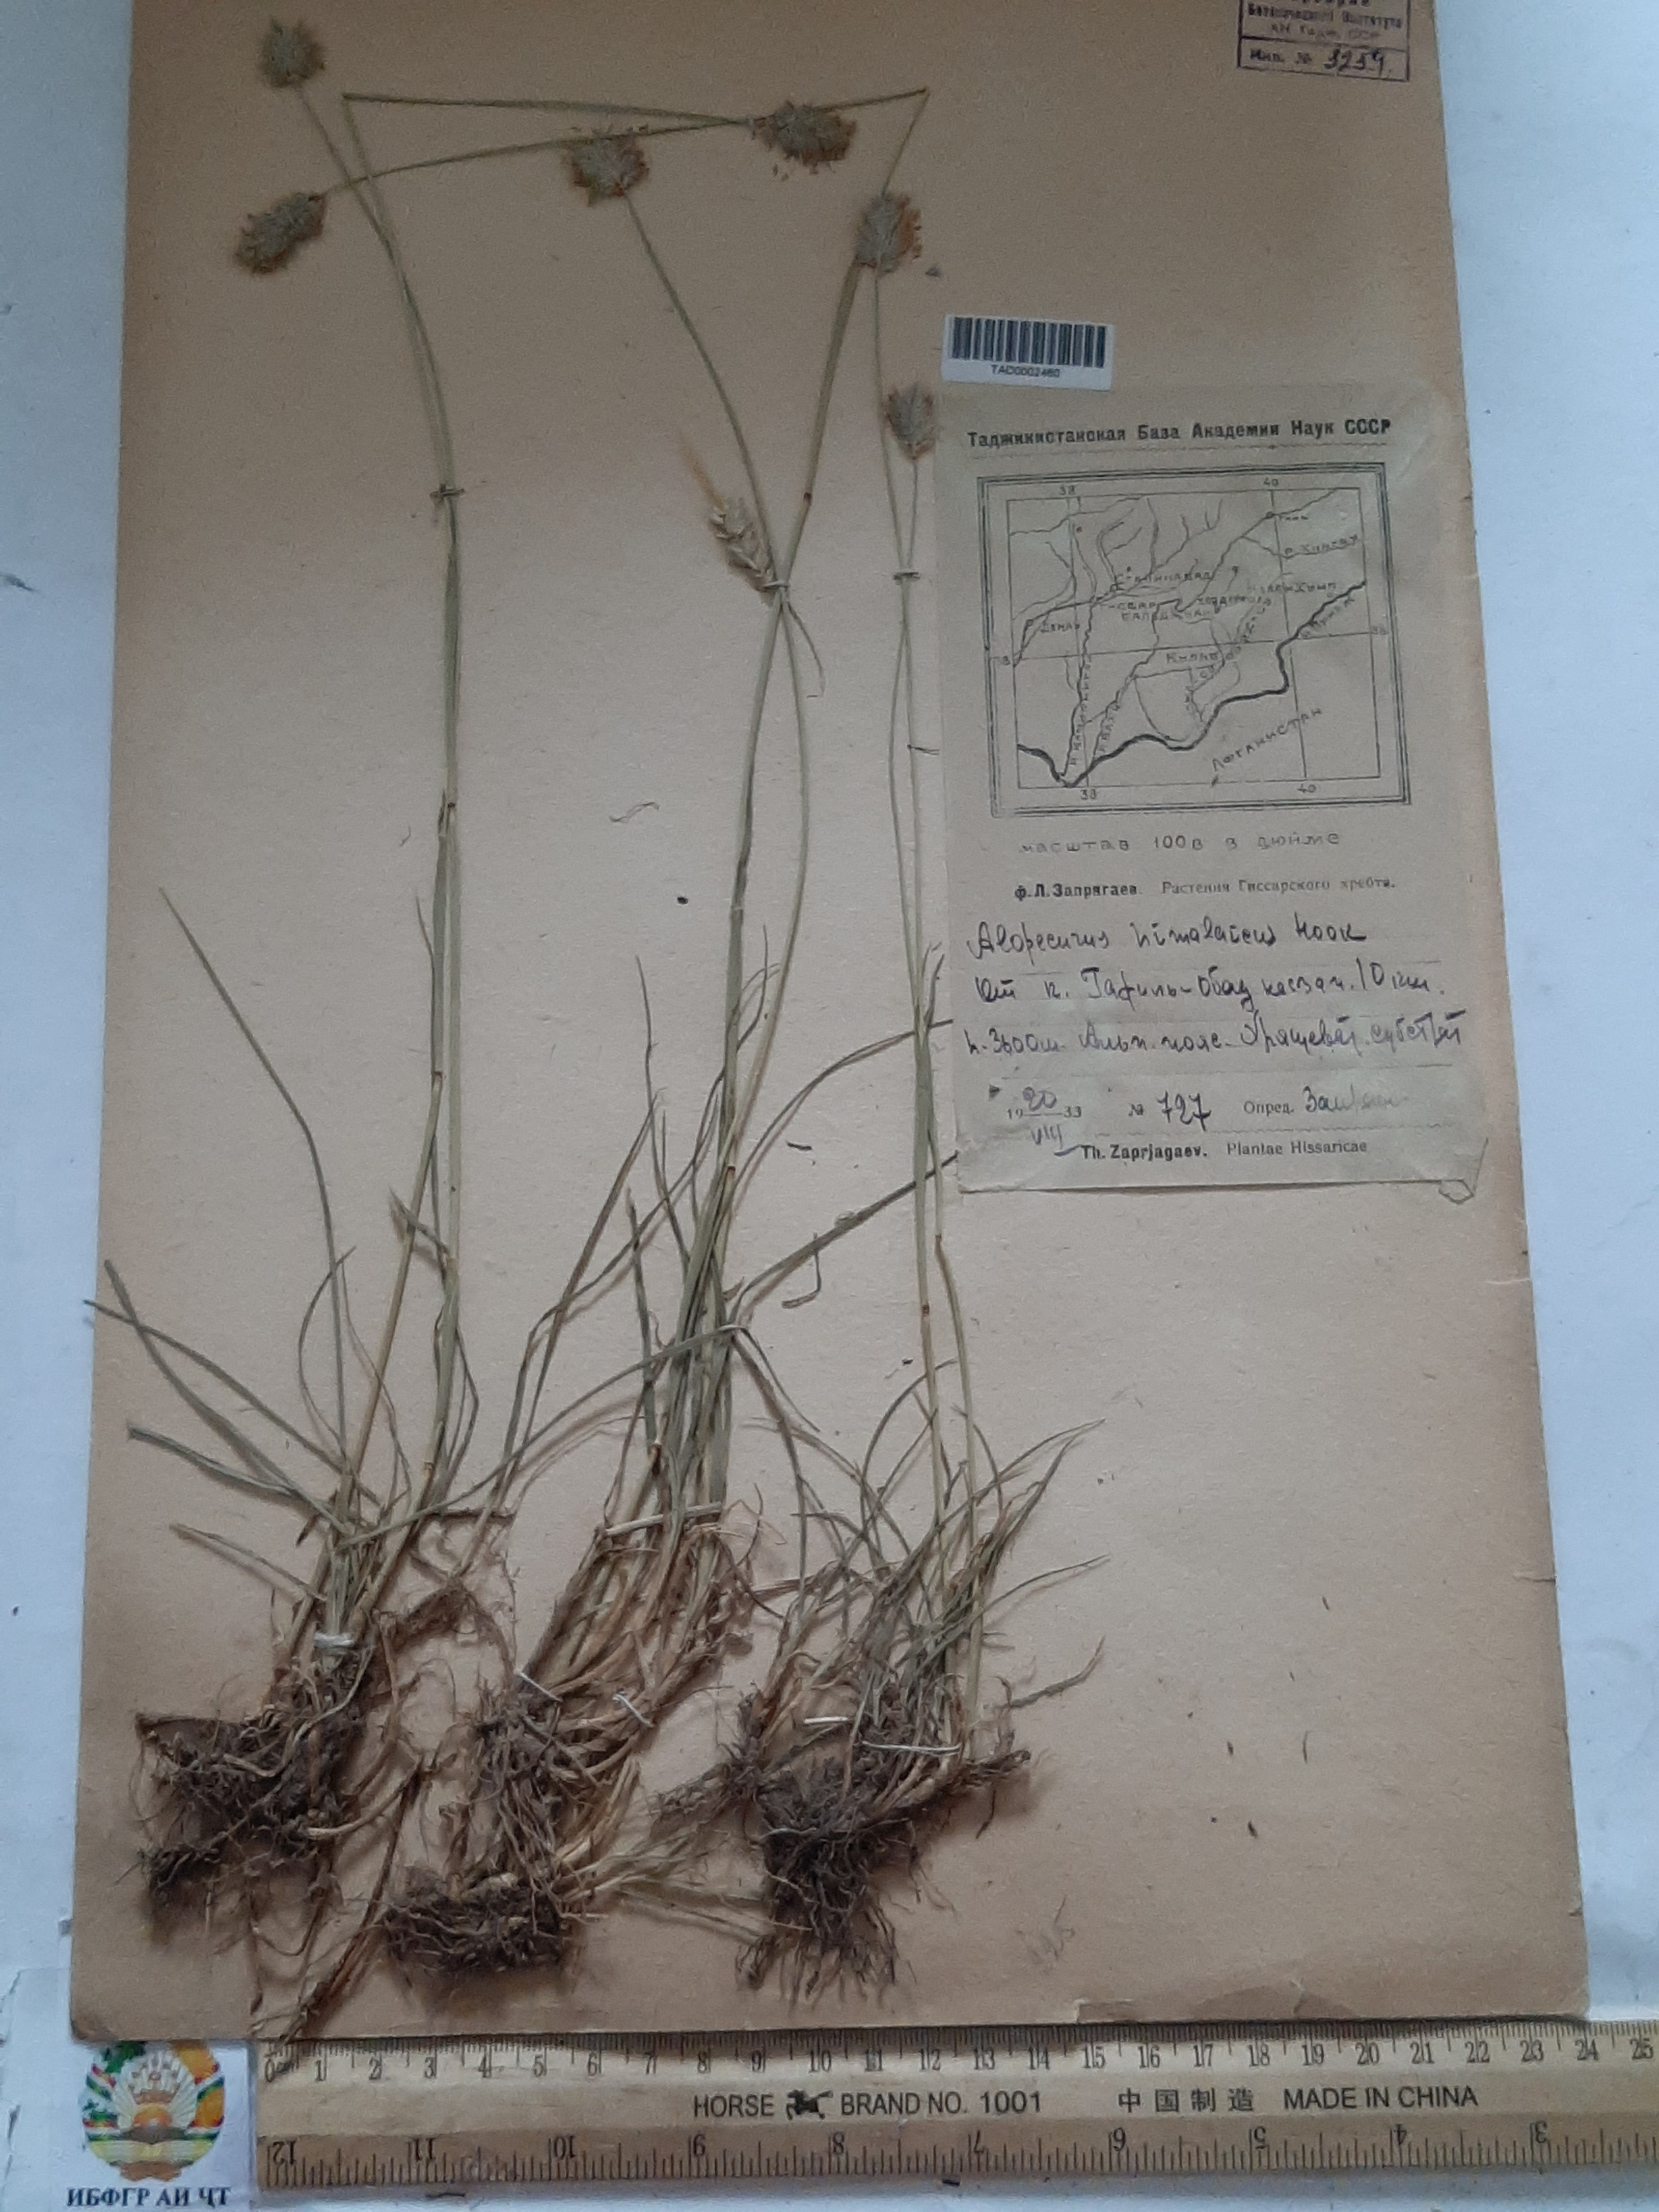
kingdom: Plantae
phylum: Tracheophyta
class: Liliopsida
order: Poales
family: Poaceae
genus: Alopecurus
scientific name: Alopecurus himalaicus
